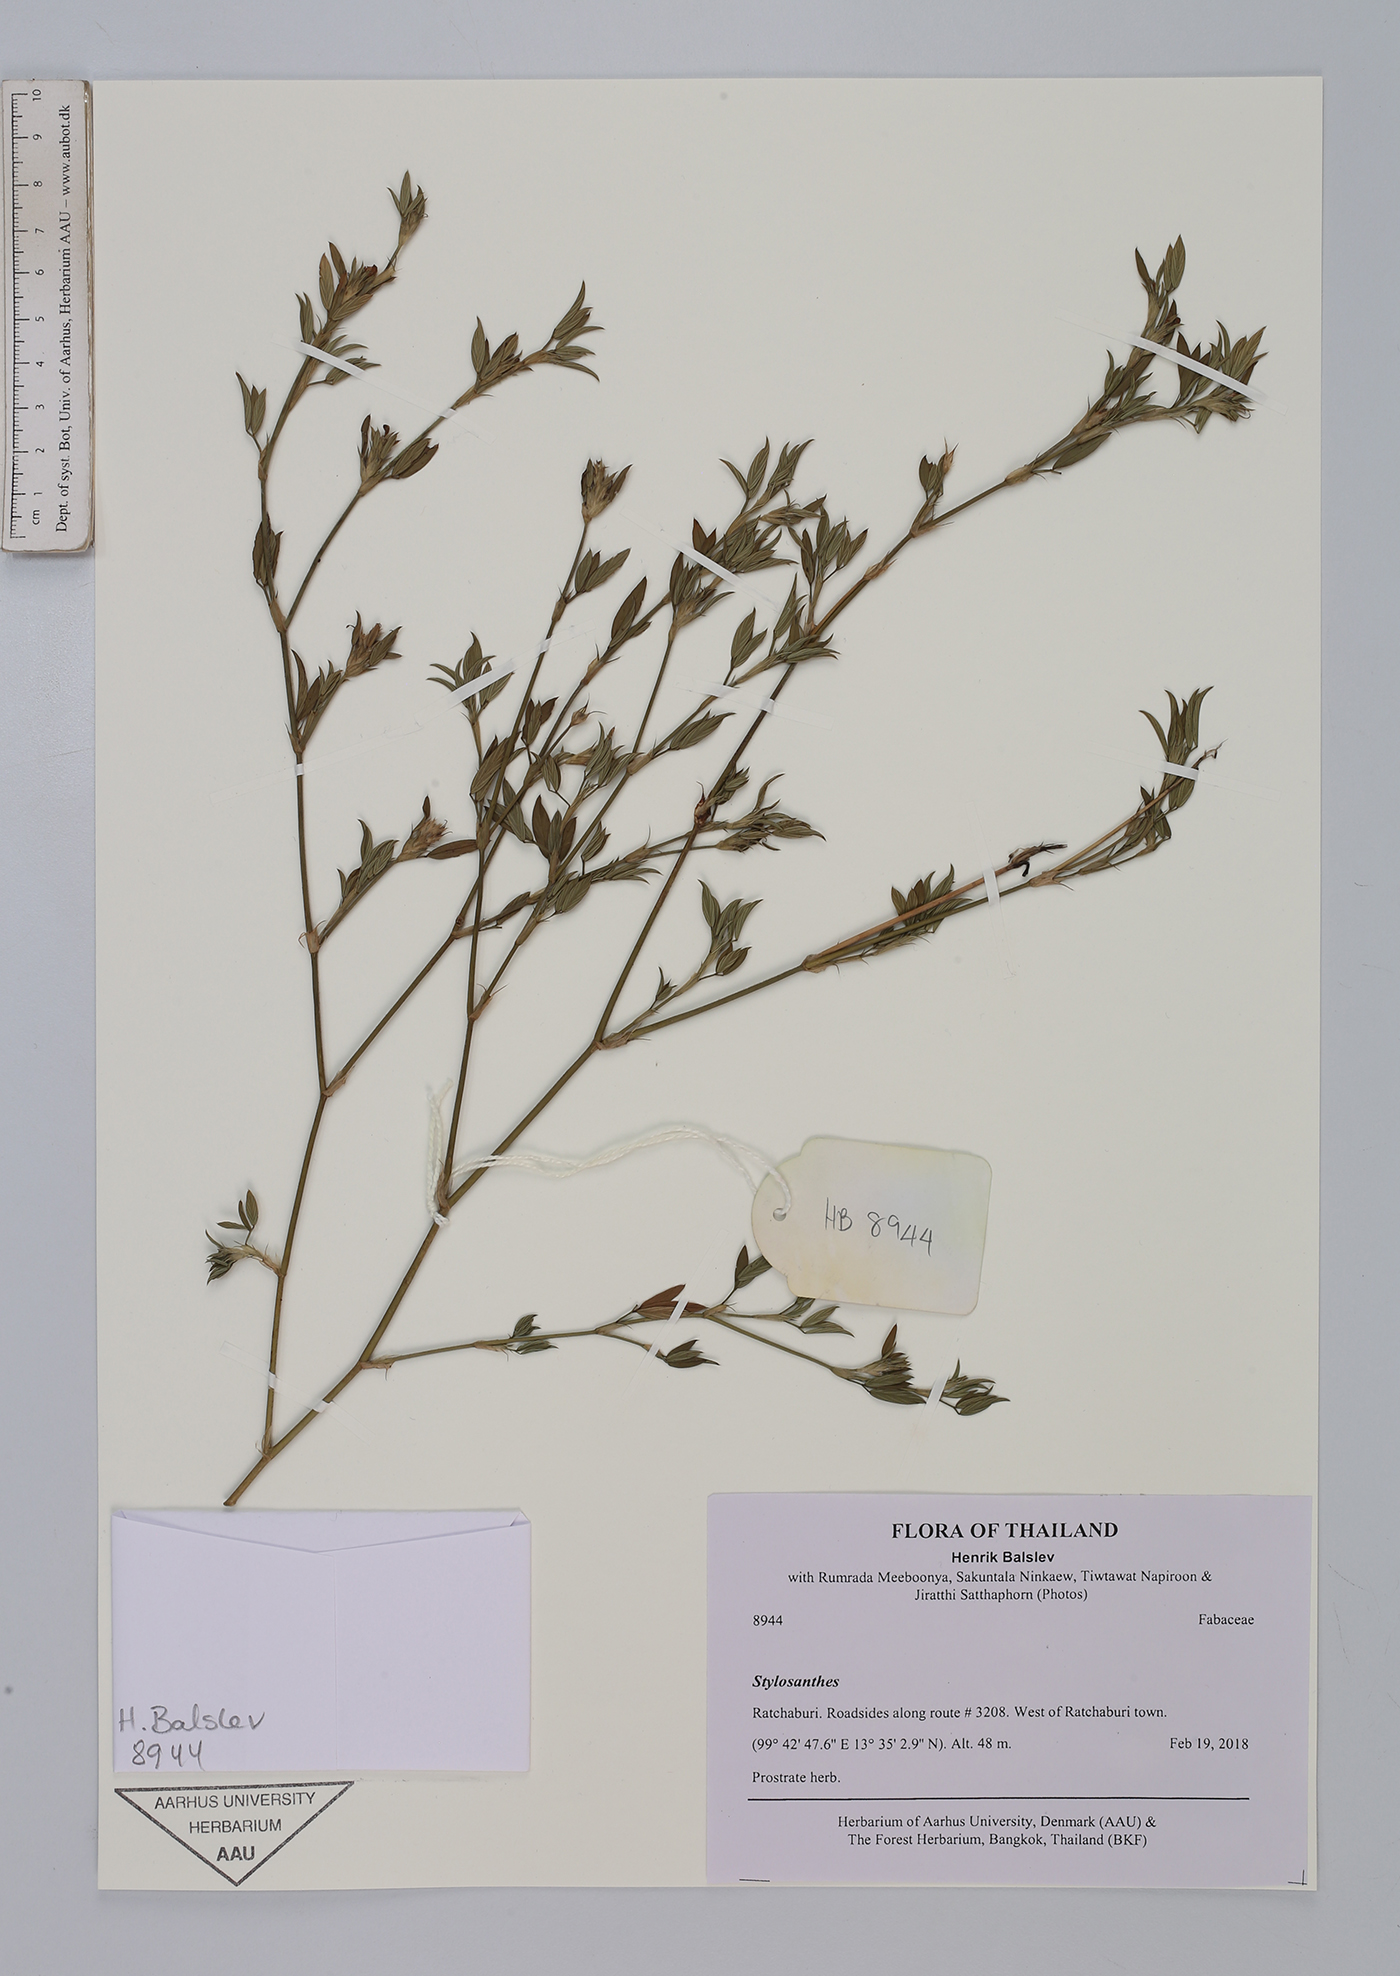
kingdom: Plantae
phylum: Tracheophyta
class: Magnoliopsida
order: Fabales
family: Fabaceae
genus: Stylosanthes
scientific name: Stylosanthes
